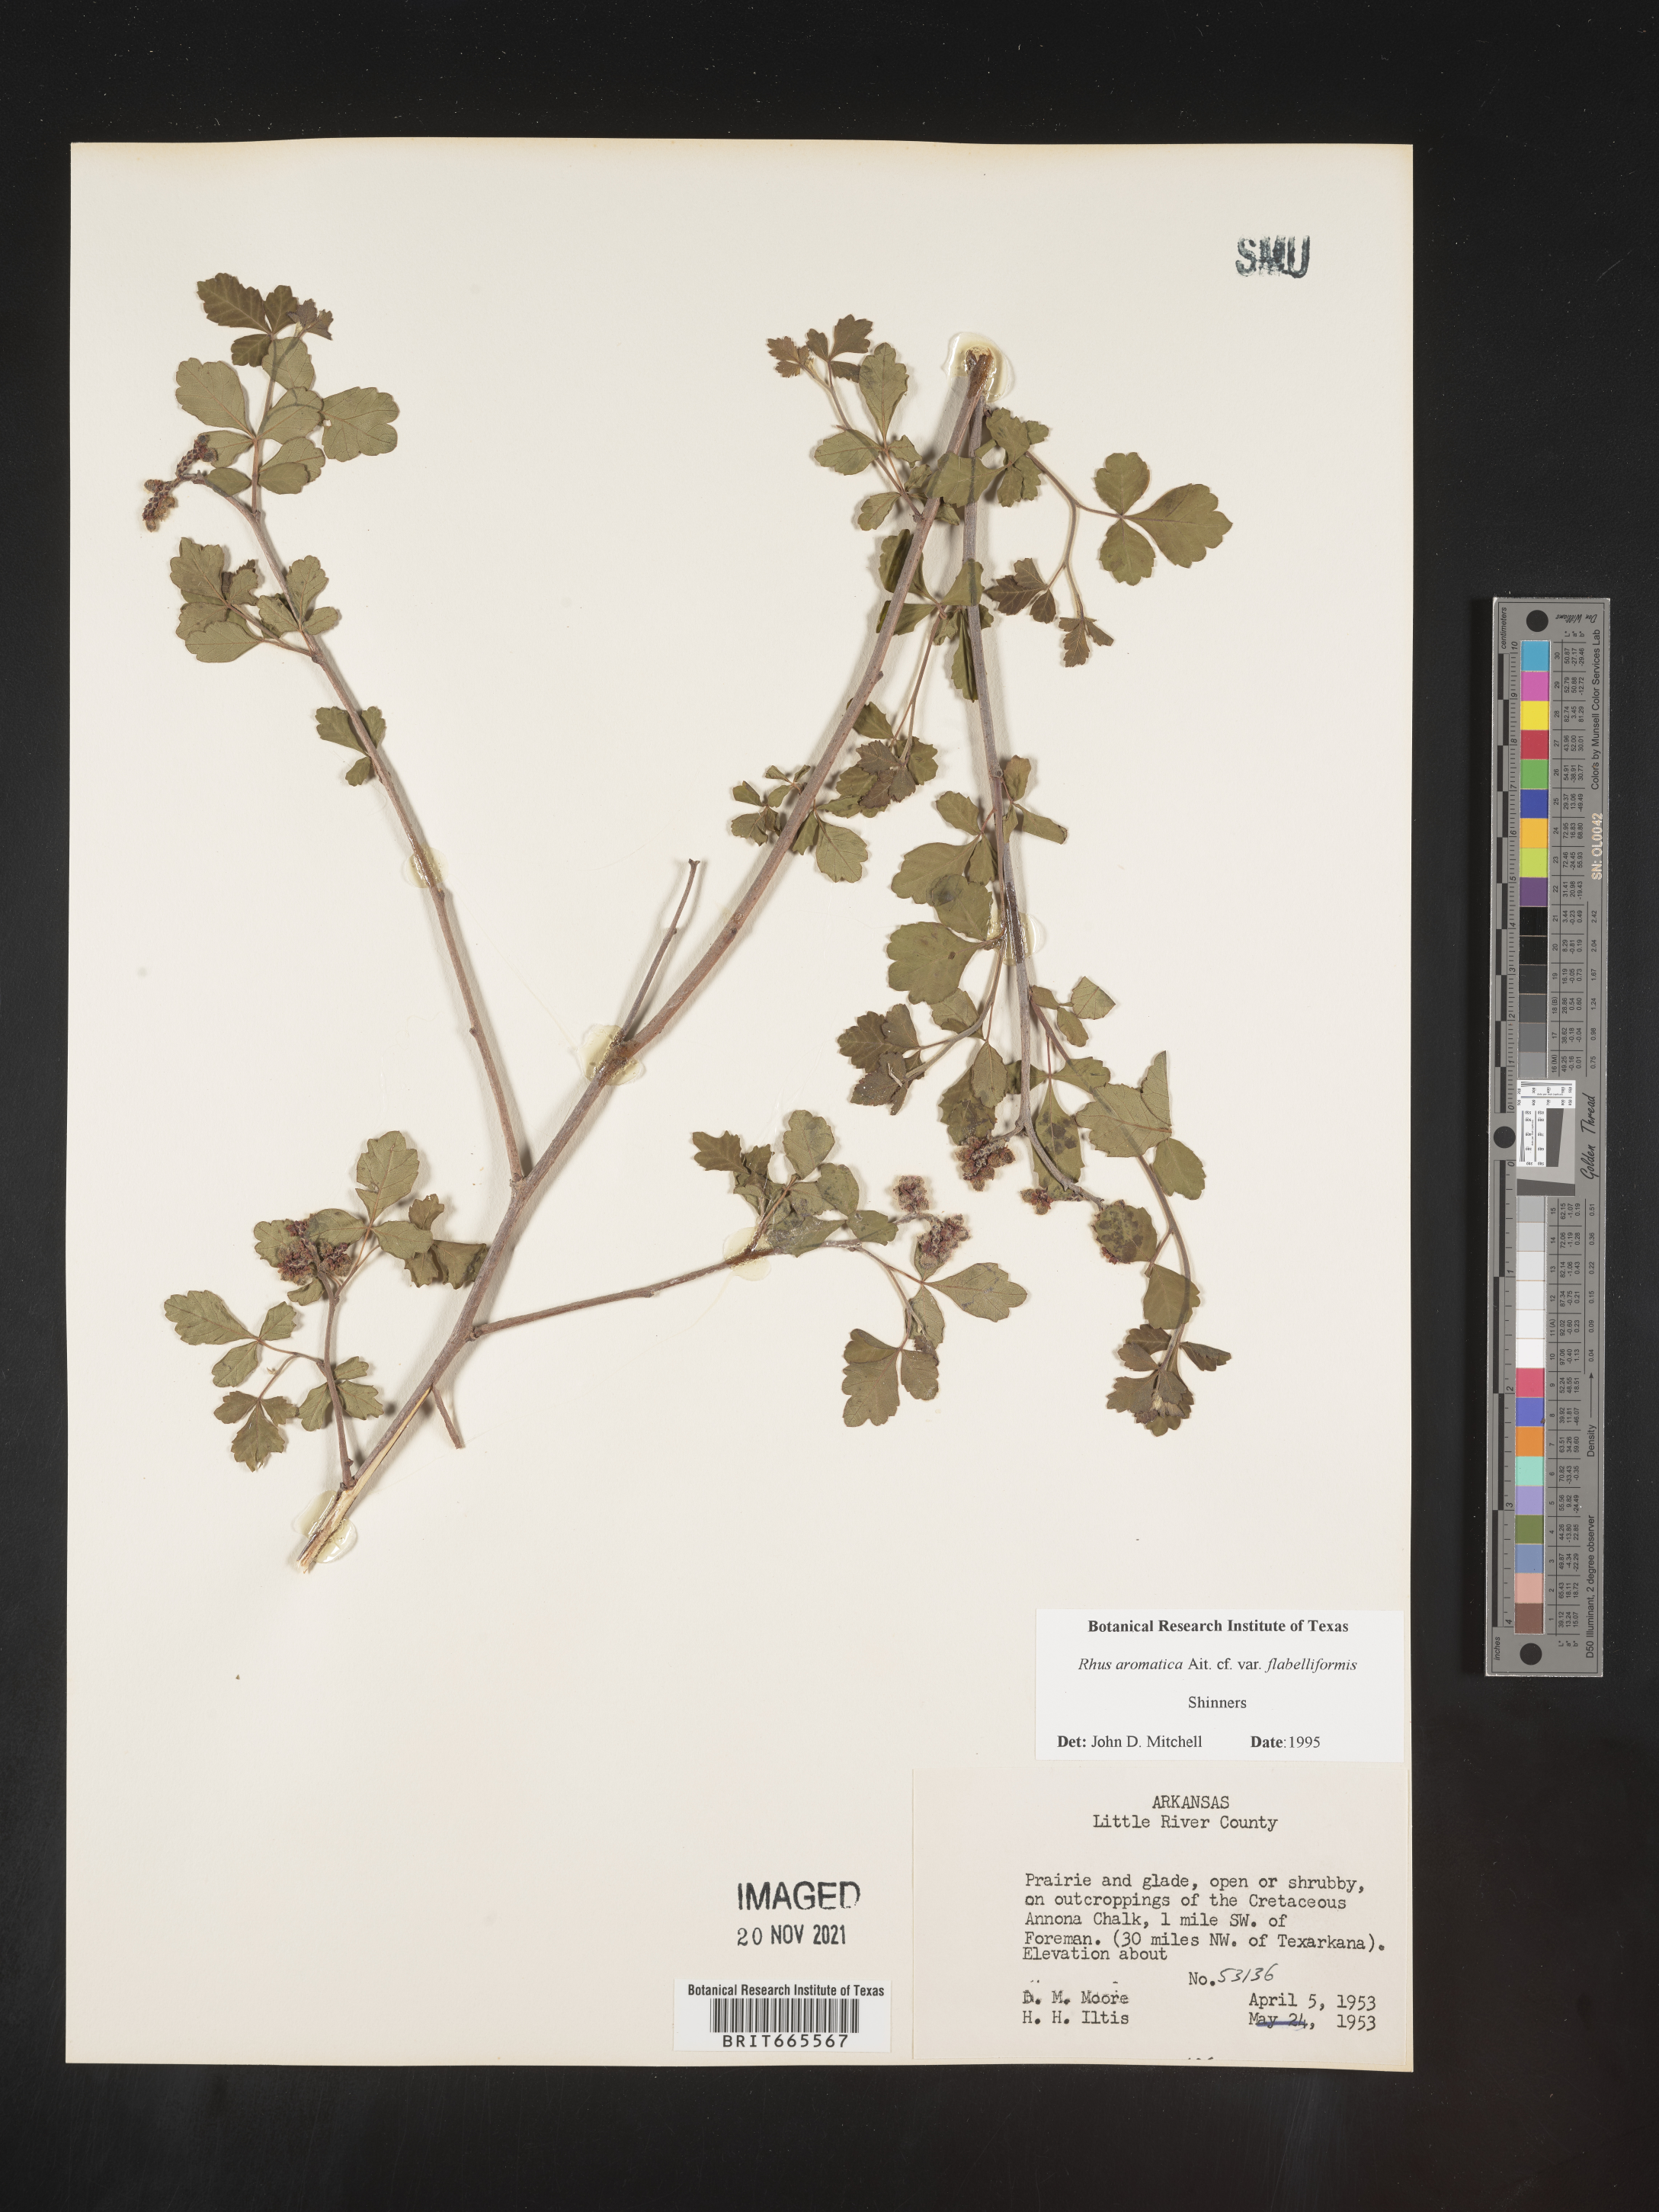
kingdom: Plantae
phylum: Tracheophyta
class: Magnoliopsida
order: Sapindales
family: Anacardiaceae
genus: Rhus
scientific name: Rhus aromatica
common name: Aromatic sumac
